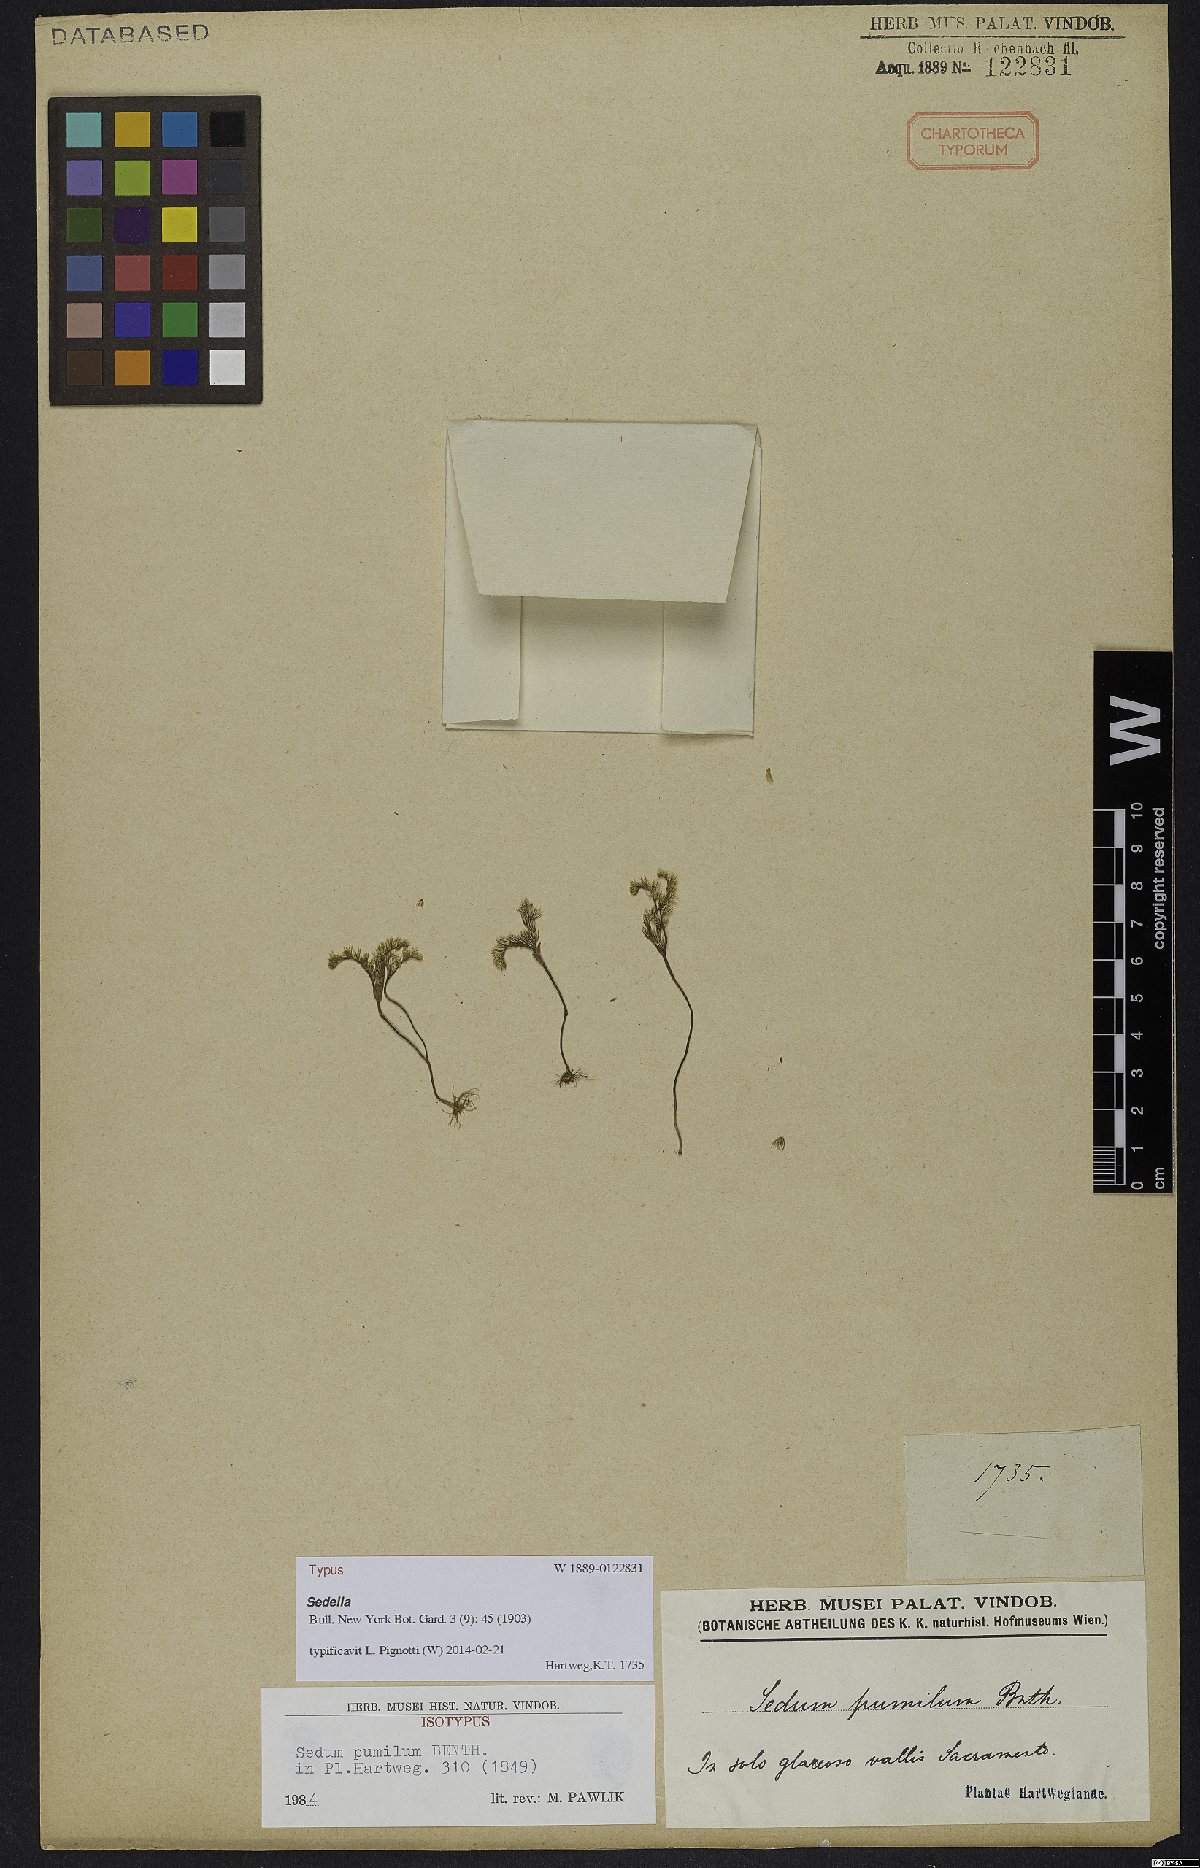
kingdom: Plantae
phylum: Tracheophyta
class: Magnoliopsida
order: Saxifragales
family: Crassulaceae
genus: Sedella
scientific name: Sedella pumila
